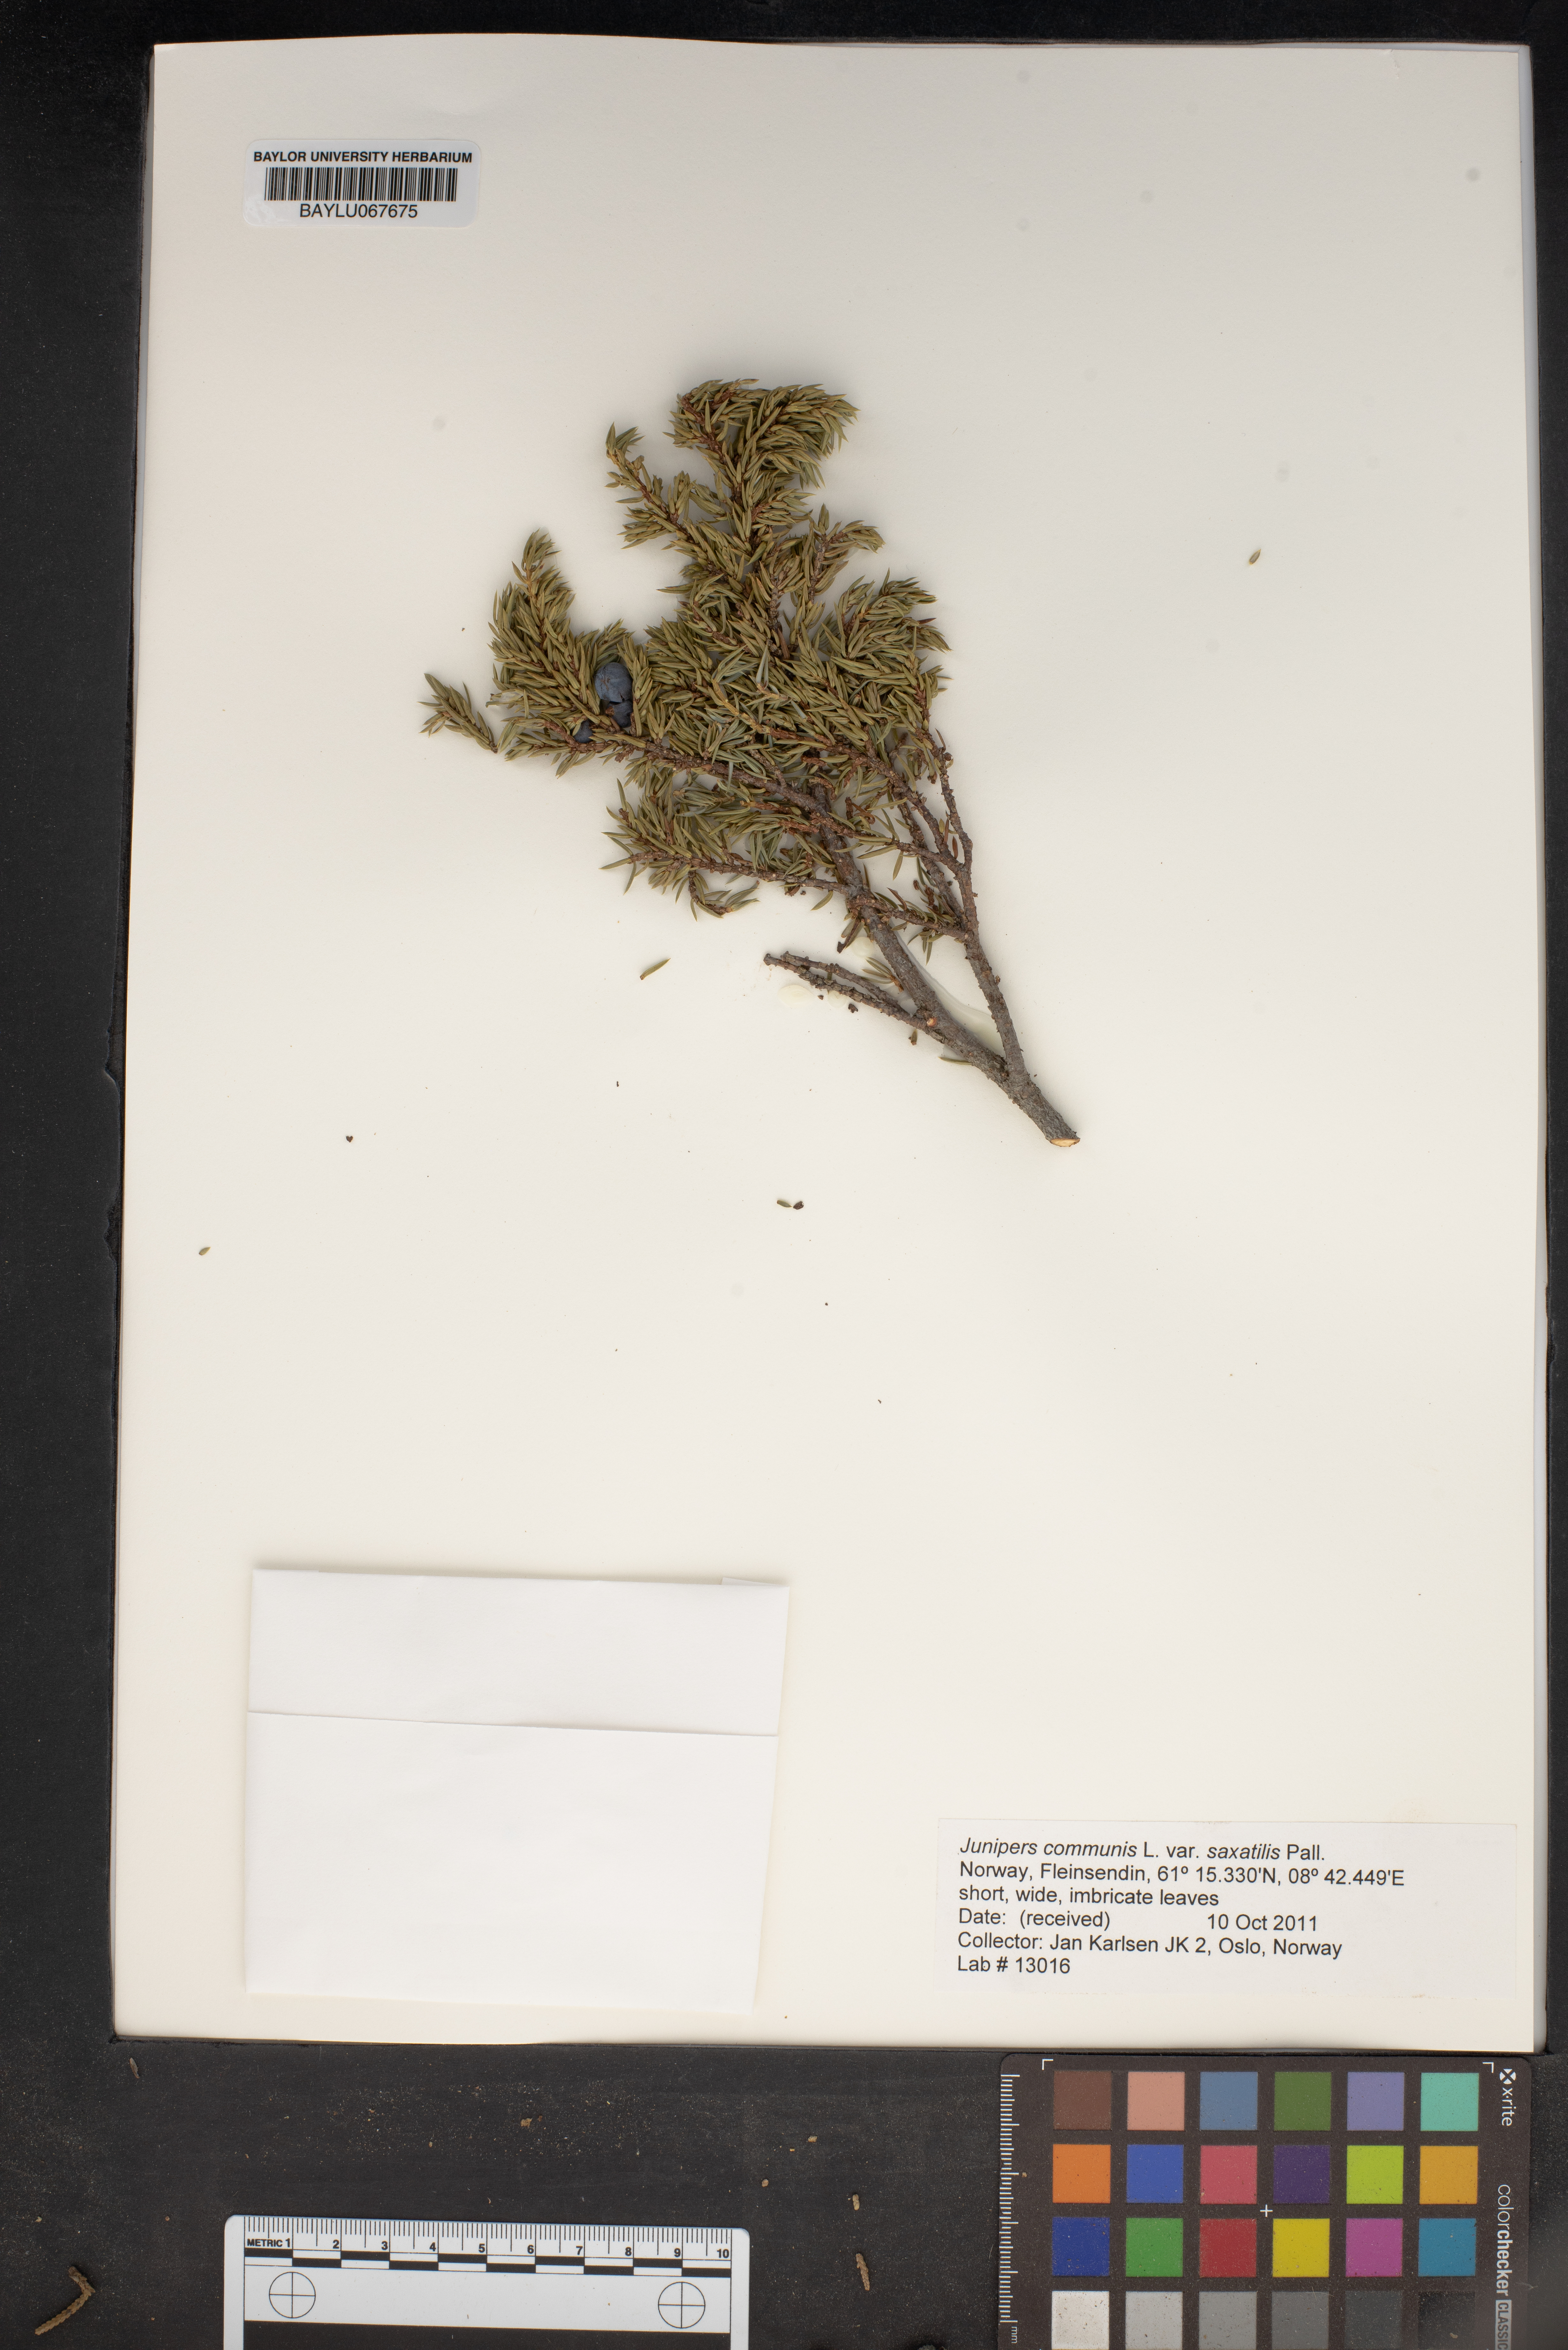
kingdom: Plantae
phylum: Tracheophyta
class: Pinopsida
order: Pinales
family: Cupressaceae
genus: Juniperus
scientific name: Juniperus communis
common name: Common juniper
